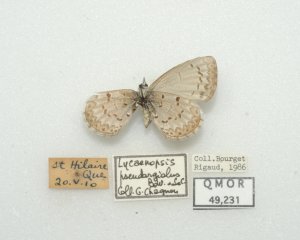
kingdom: Animalia
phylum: Arthropoda
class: Insecta
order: Lepidoptera
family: Lycaenidae
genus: Celastrina
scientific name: Celastrina lucia
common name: Northern Spring Azure
